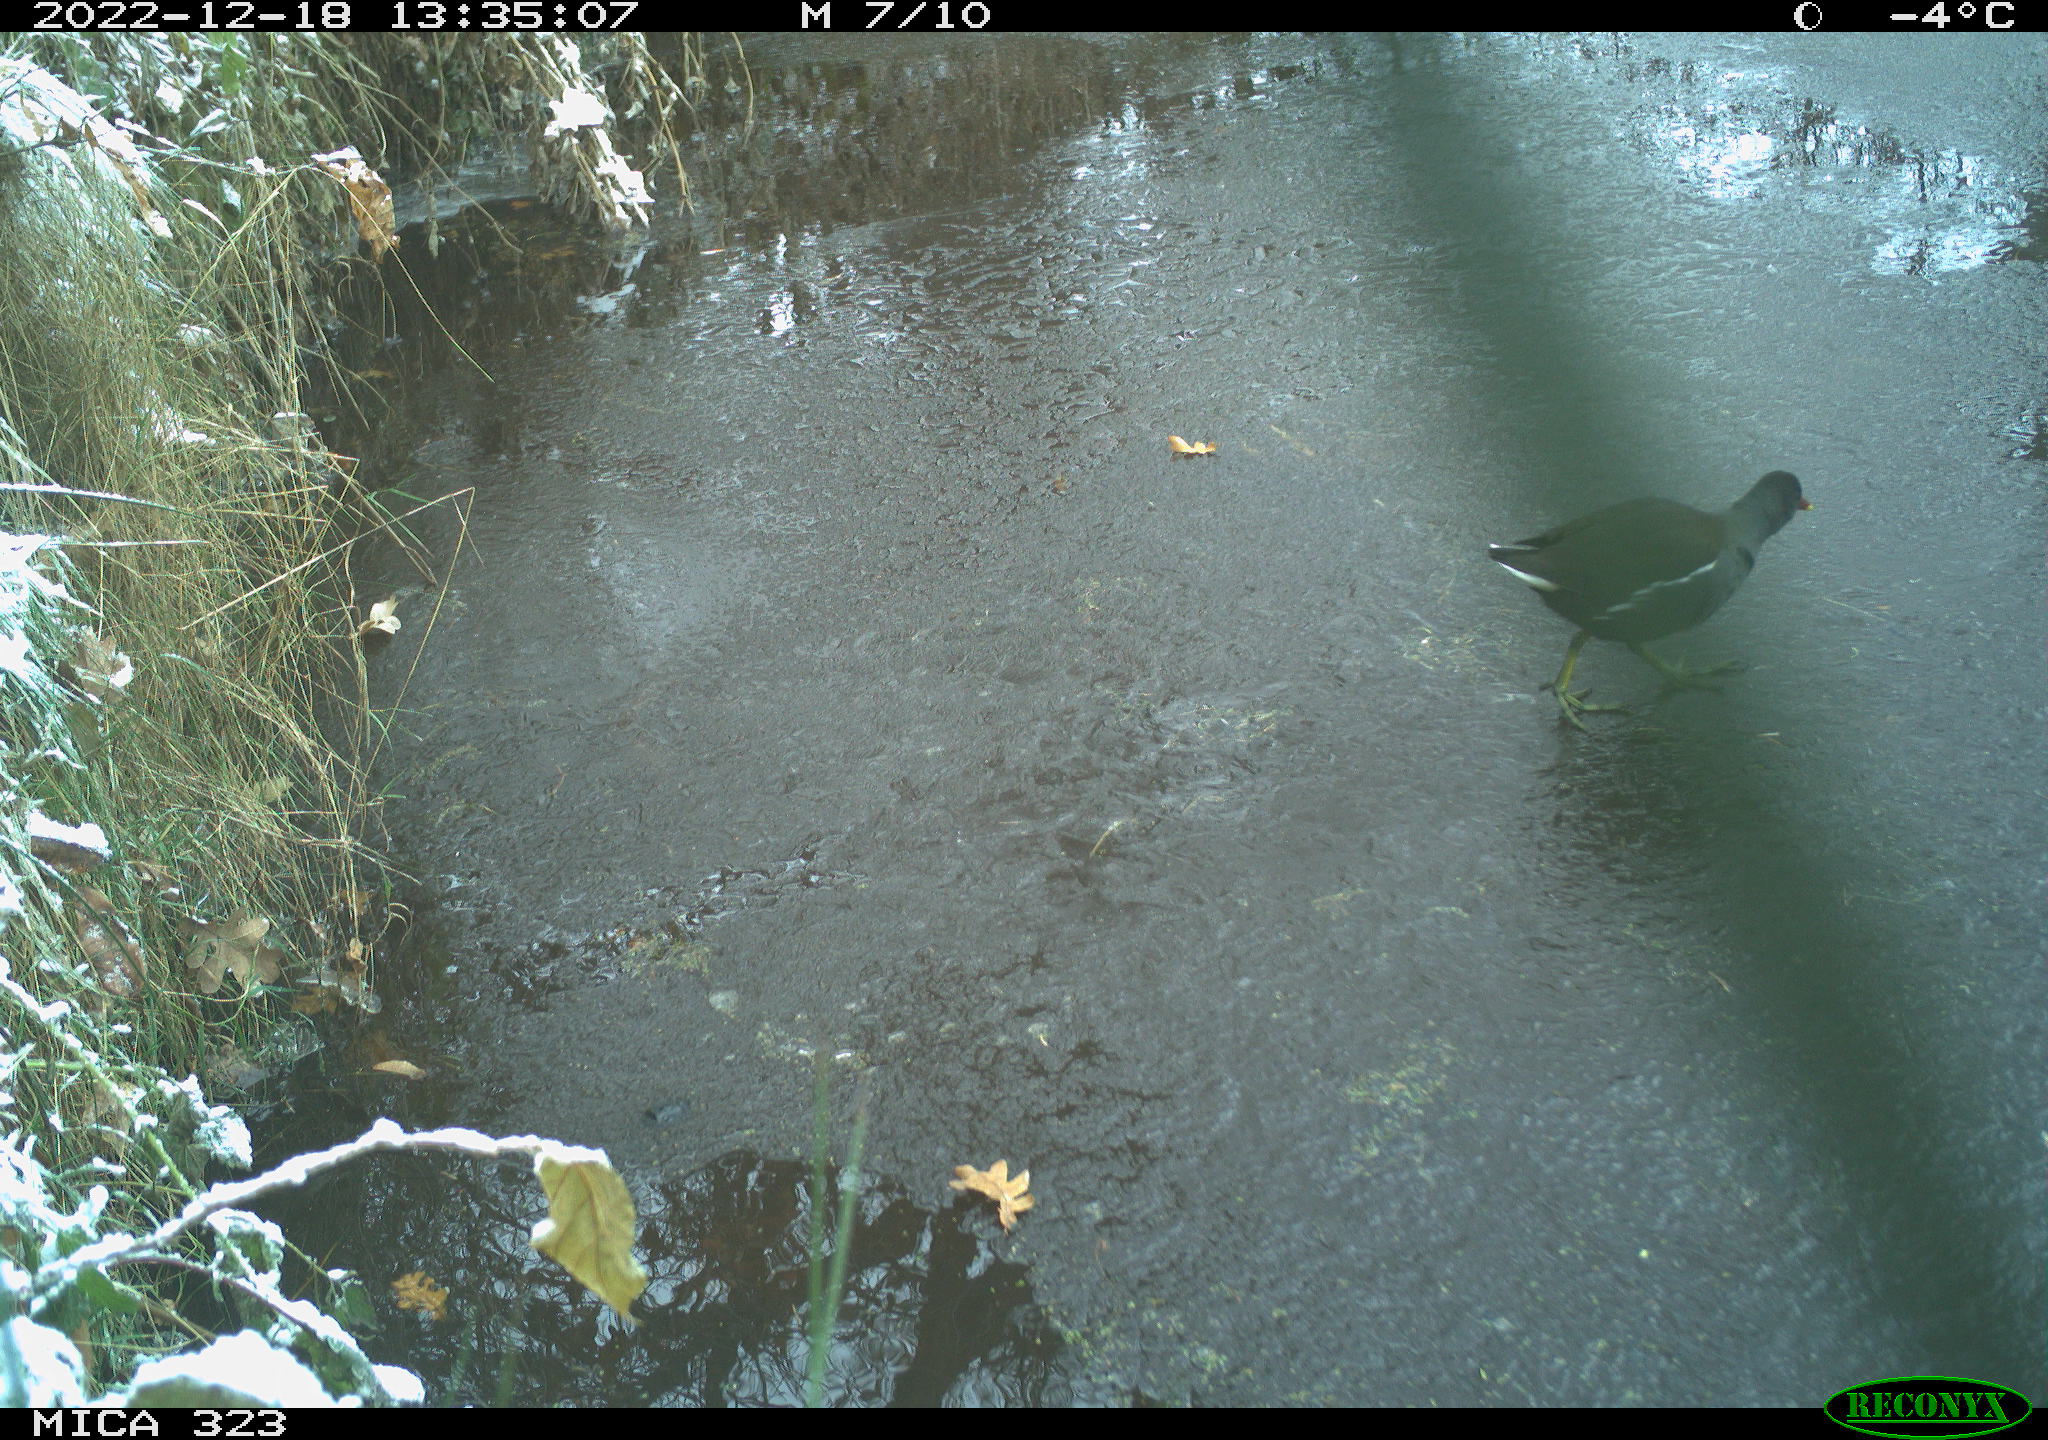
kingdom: Animalia
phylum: Chordata
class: Aves
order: Gruiformes
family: Rallidae
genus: Gallinula
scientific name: Gallinula chloropus
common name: Common moorhen
